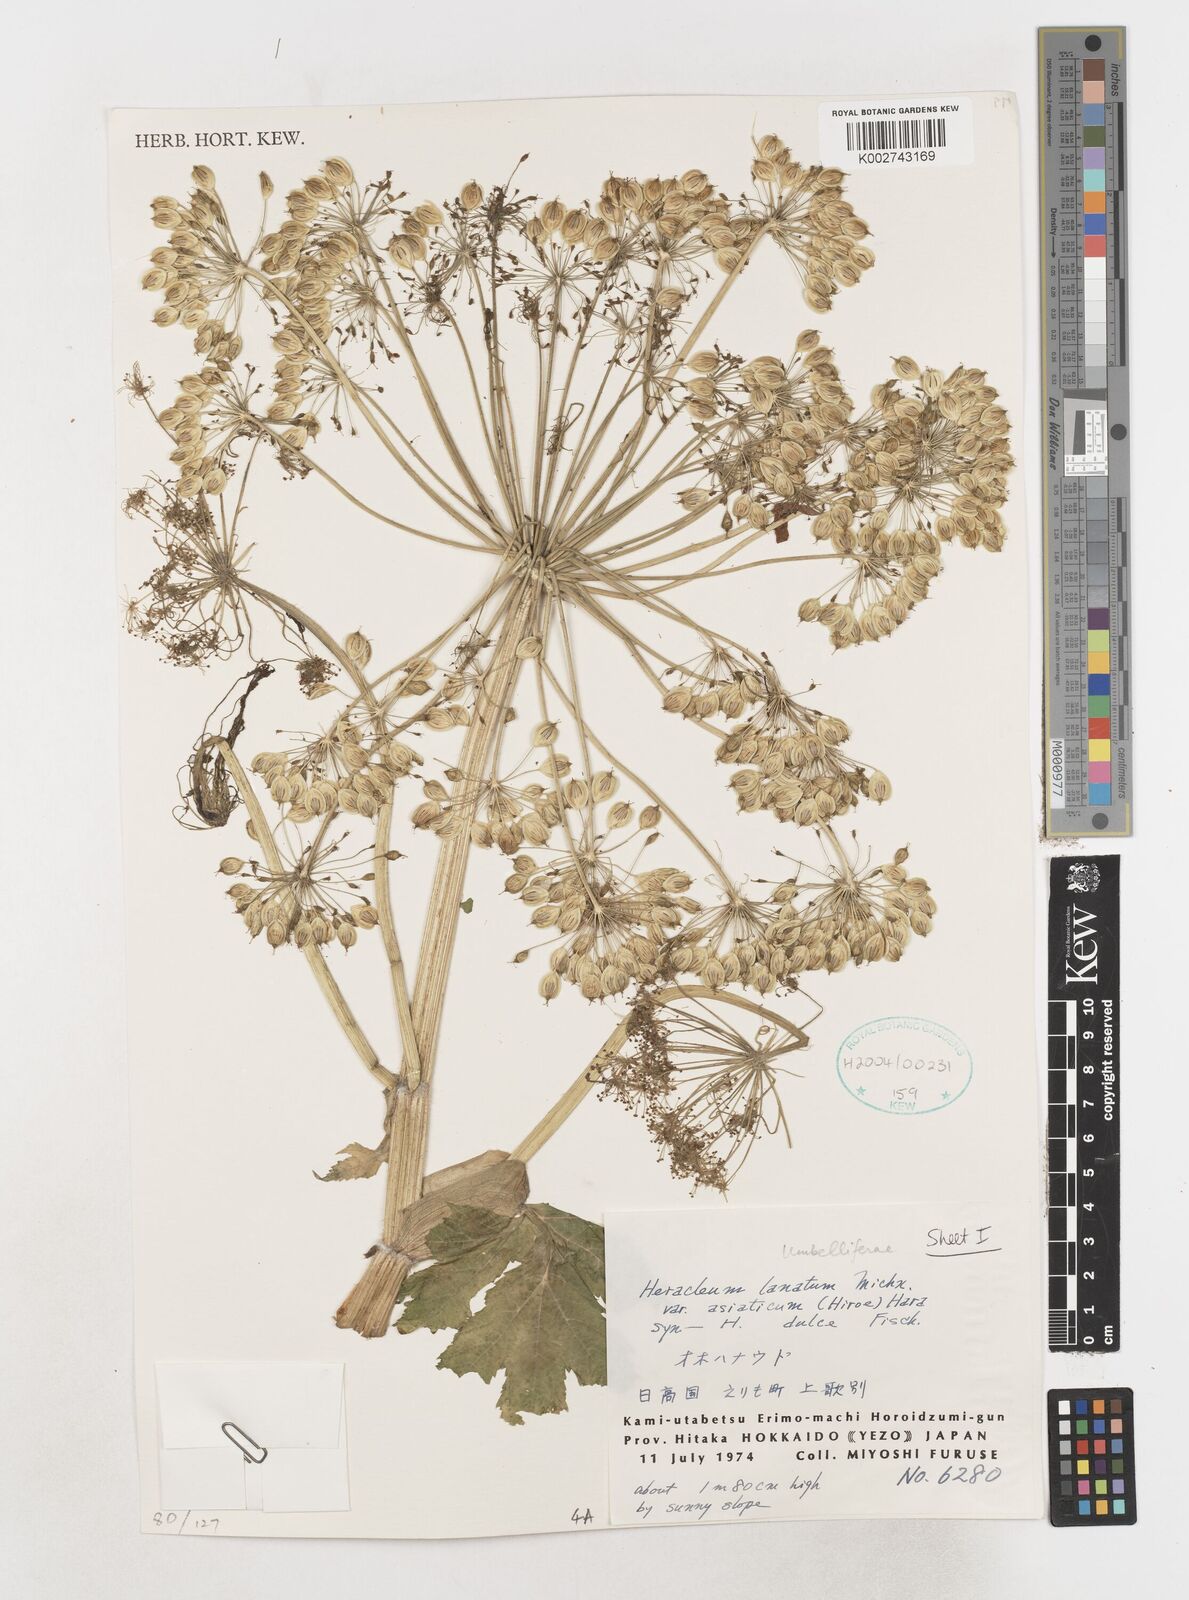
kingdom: Plantae
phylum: Tracheophyta
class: Magnoliopsida
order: Apiales
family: Apiaceae
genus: Heracleum
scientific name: Heracleum maximum
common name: American cow parsnip
